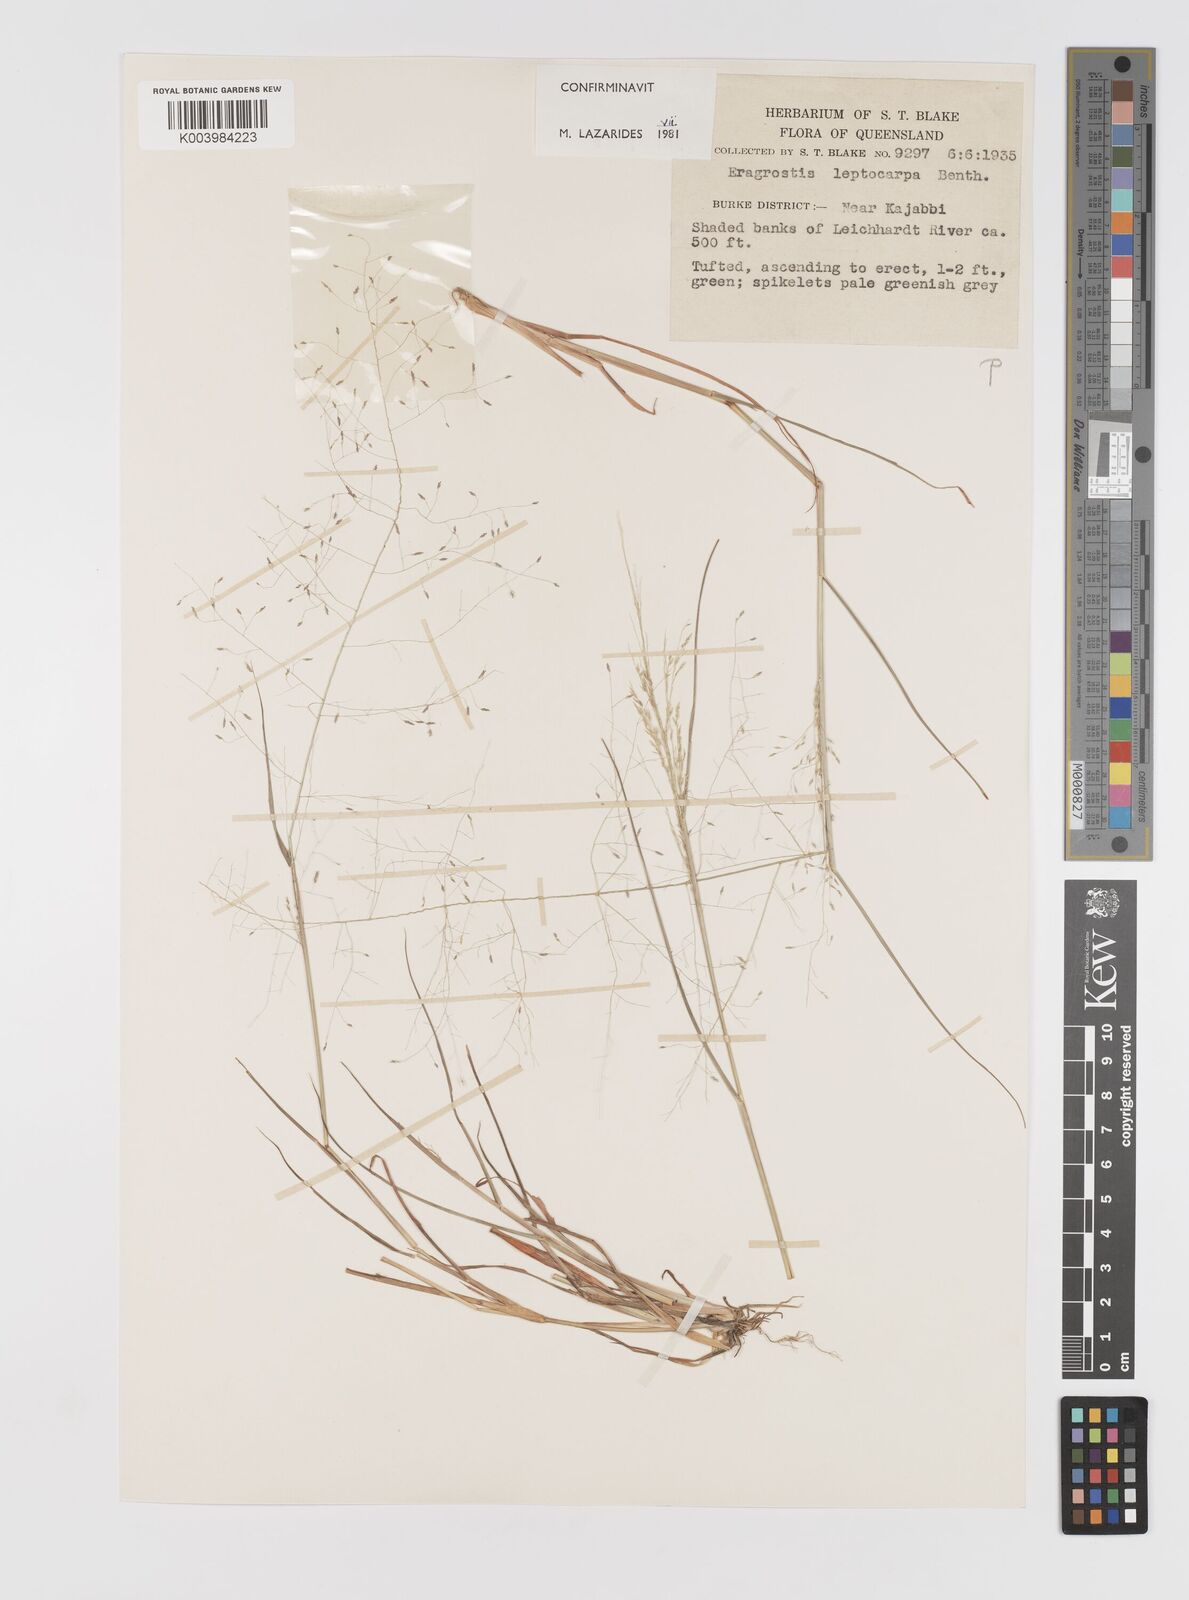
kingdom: Plantae
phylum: Tracheophyta
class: Liliopsida
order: Poales
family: Poaceae
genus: Eragrostis
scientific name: Eragrostis leptocarpa
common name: Drooping love grass
